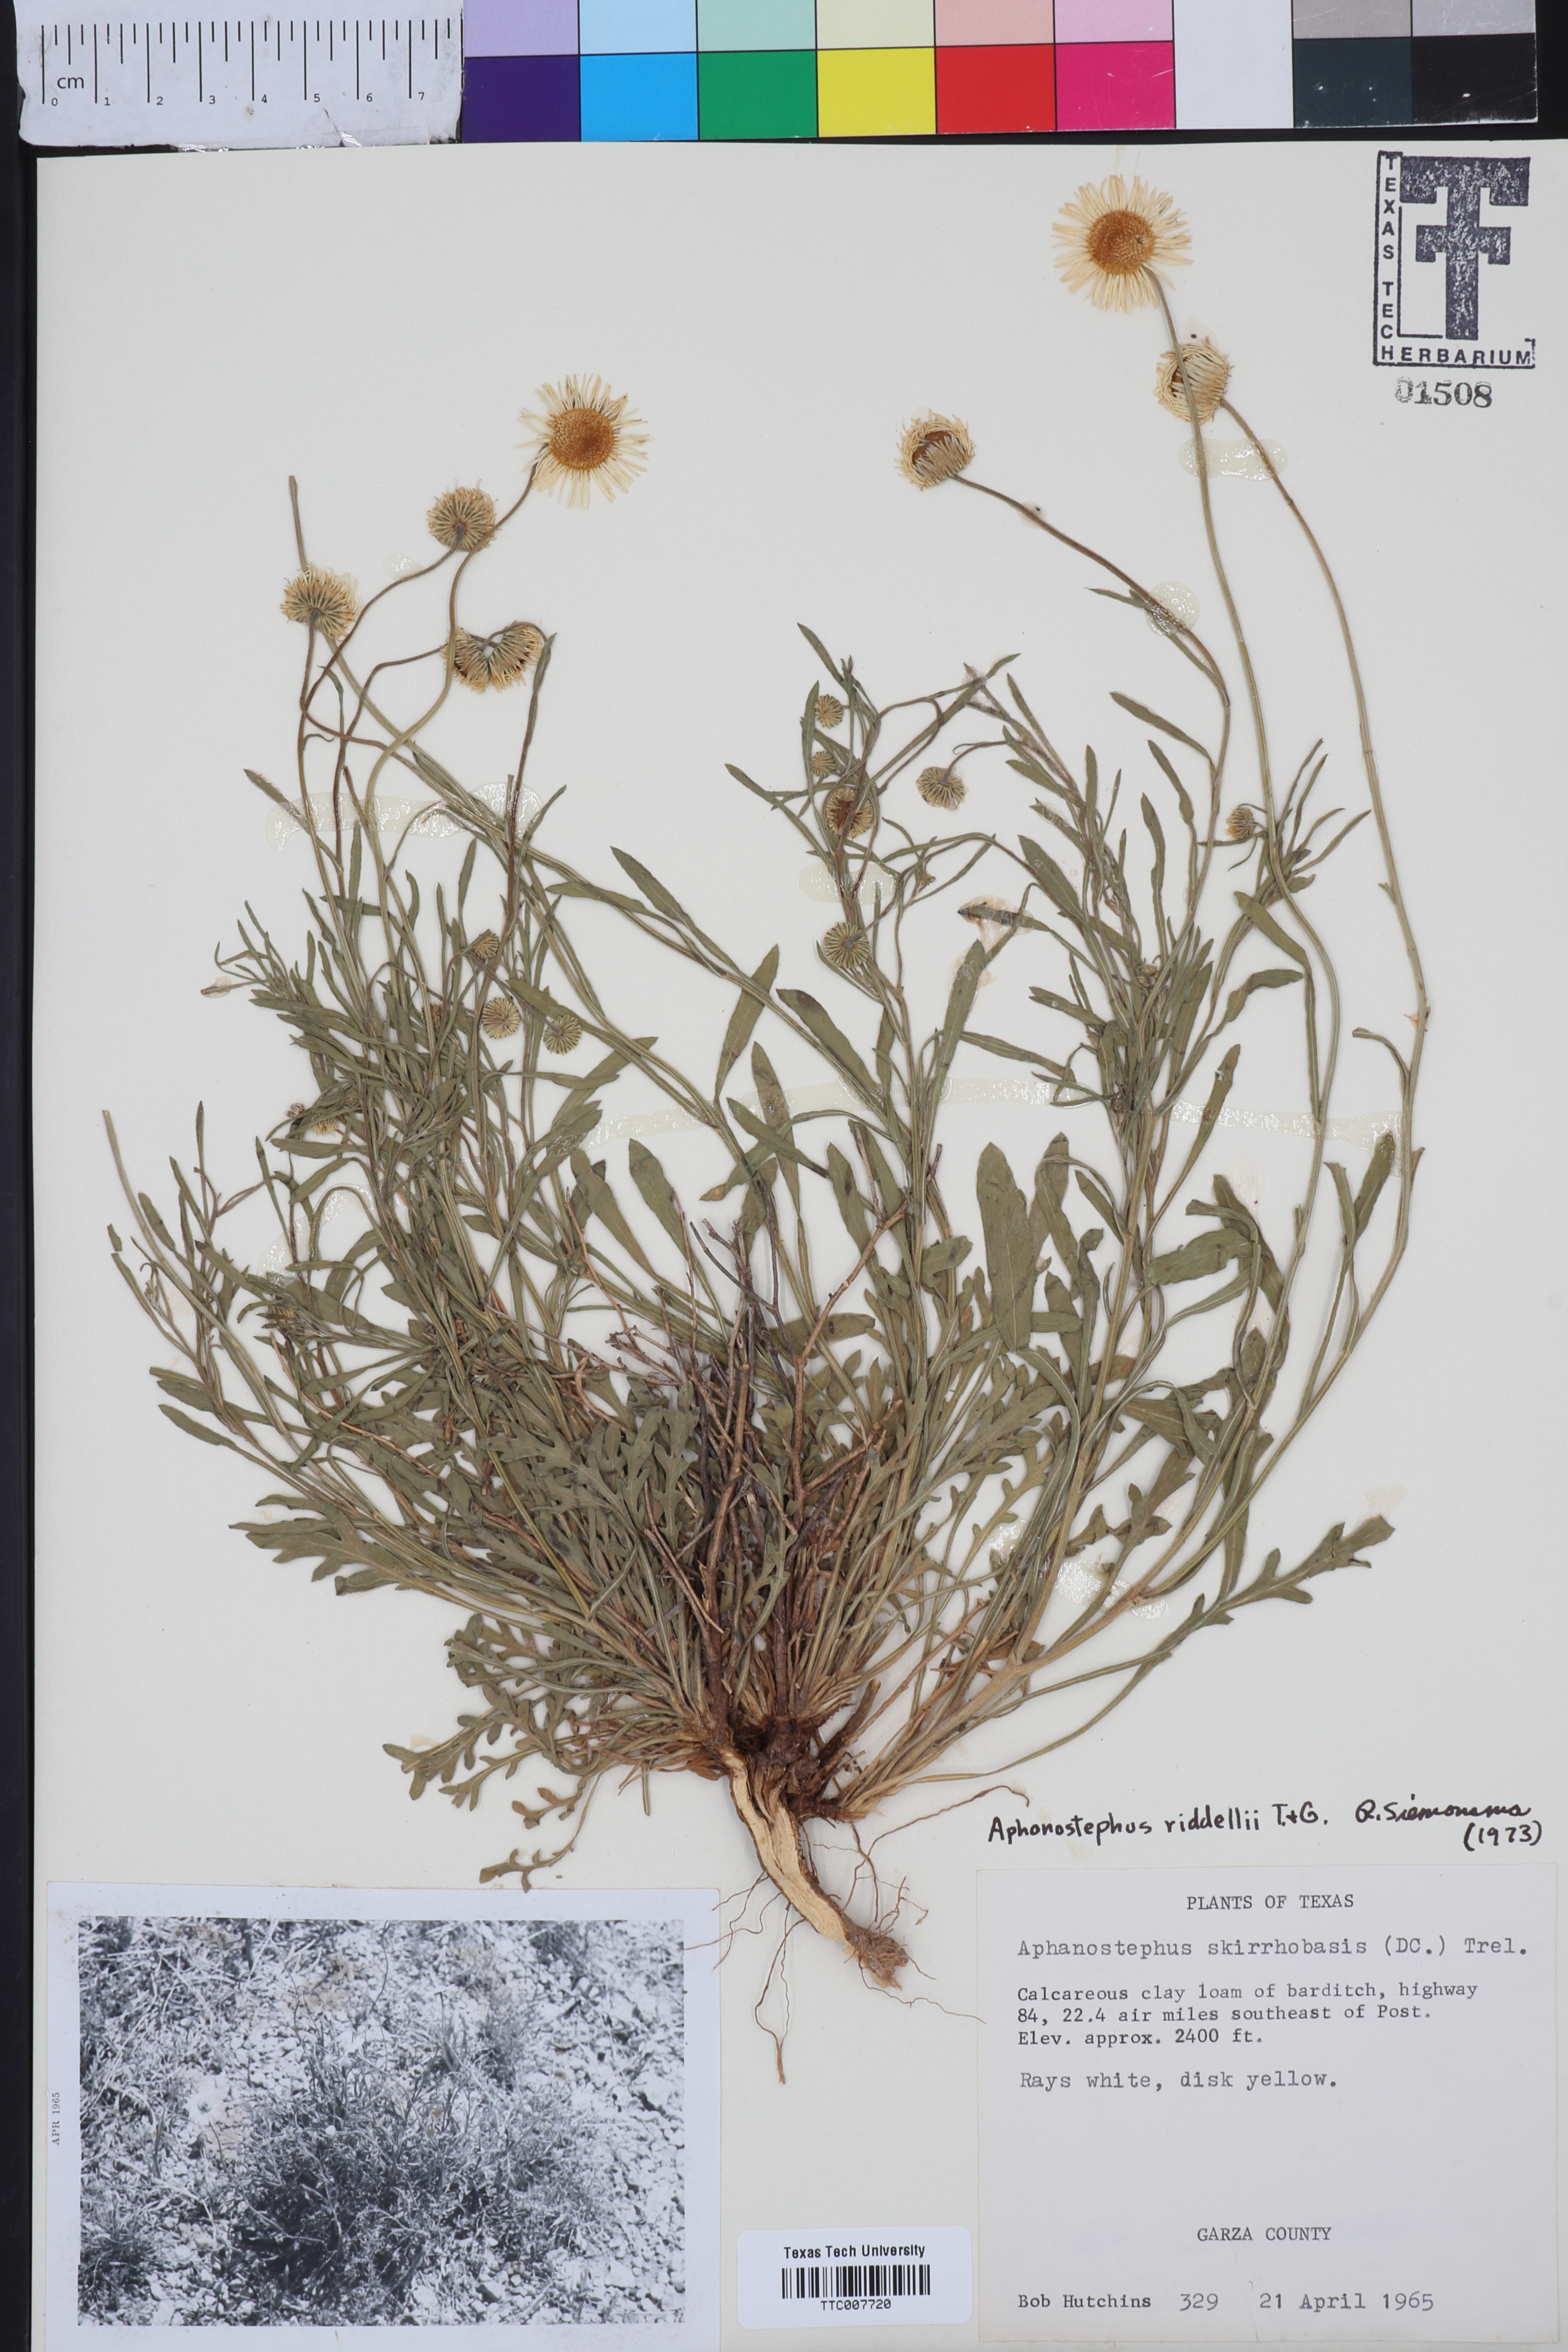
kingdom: Plantae
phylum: Tracheophyta
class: Magnoliopsida
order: Asterales
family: Asteraceae
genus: Aphanostephus
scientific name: Aphanostephus riddellii
